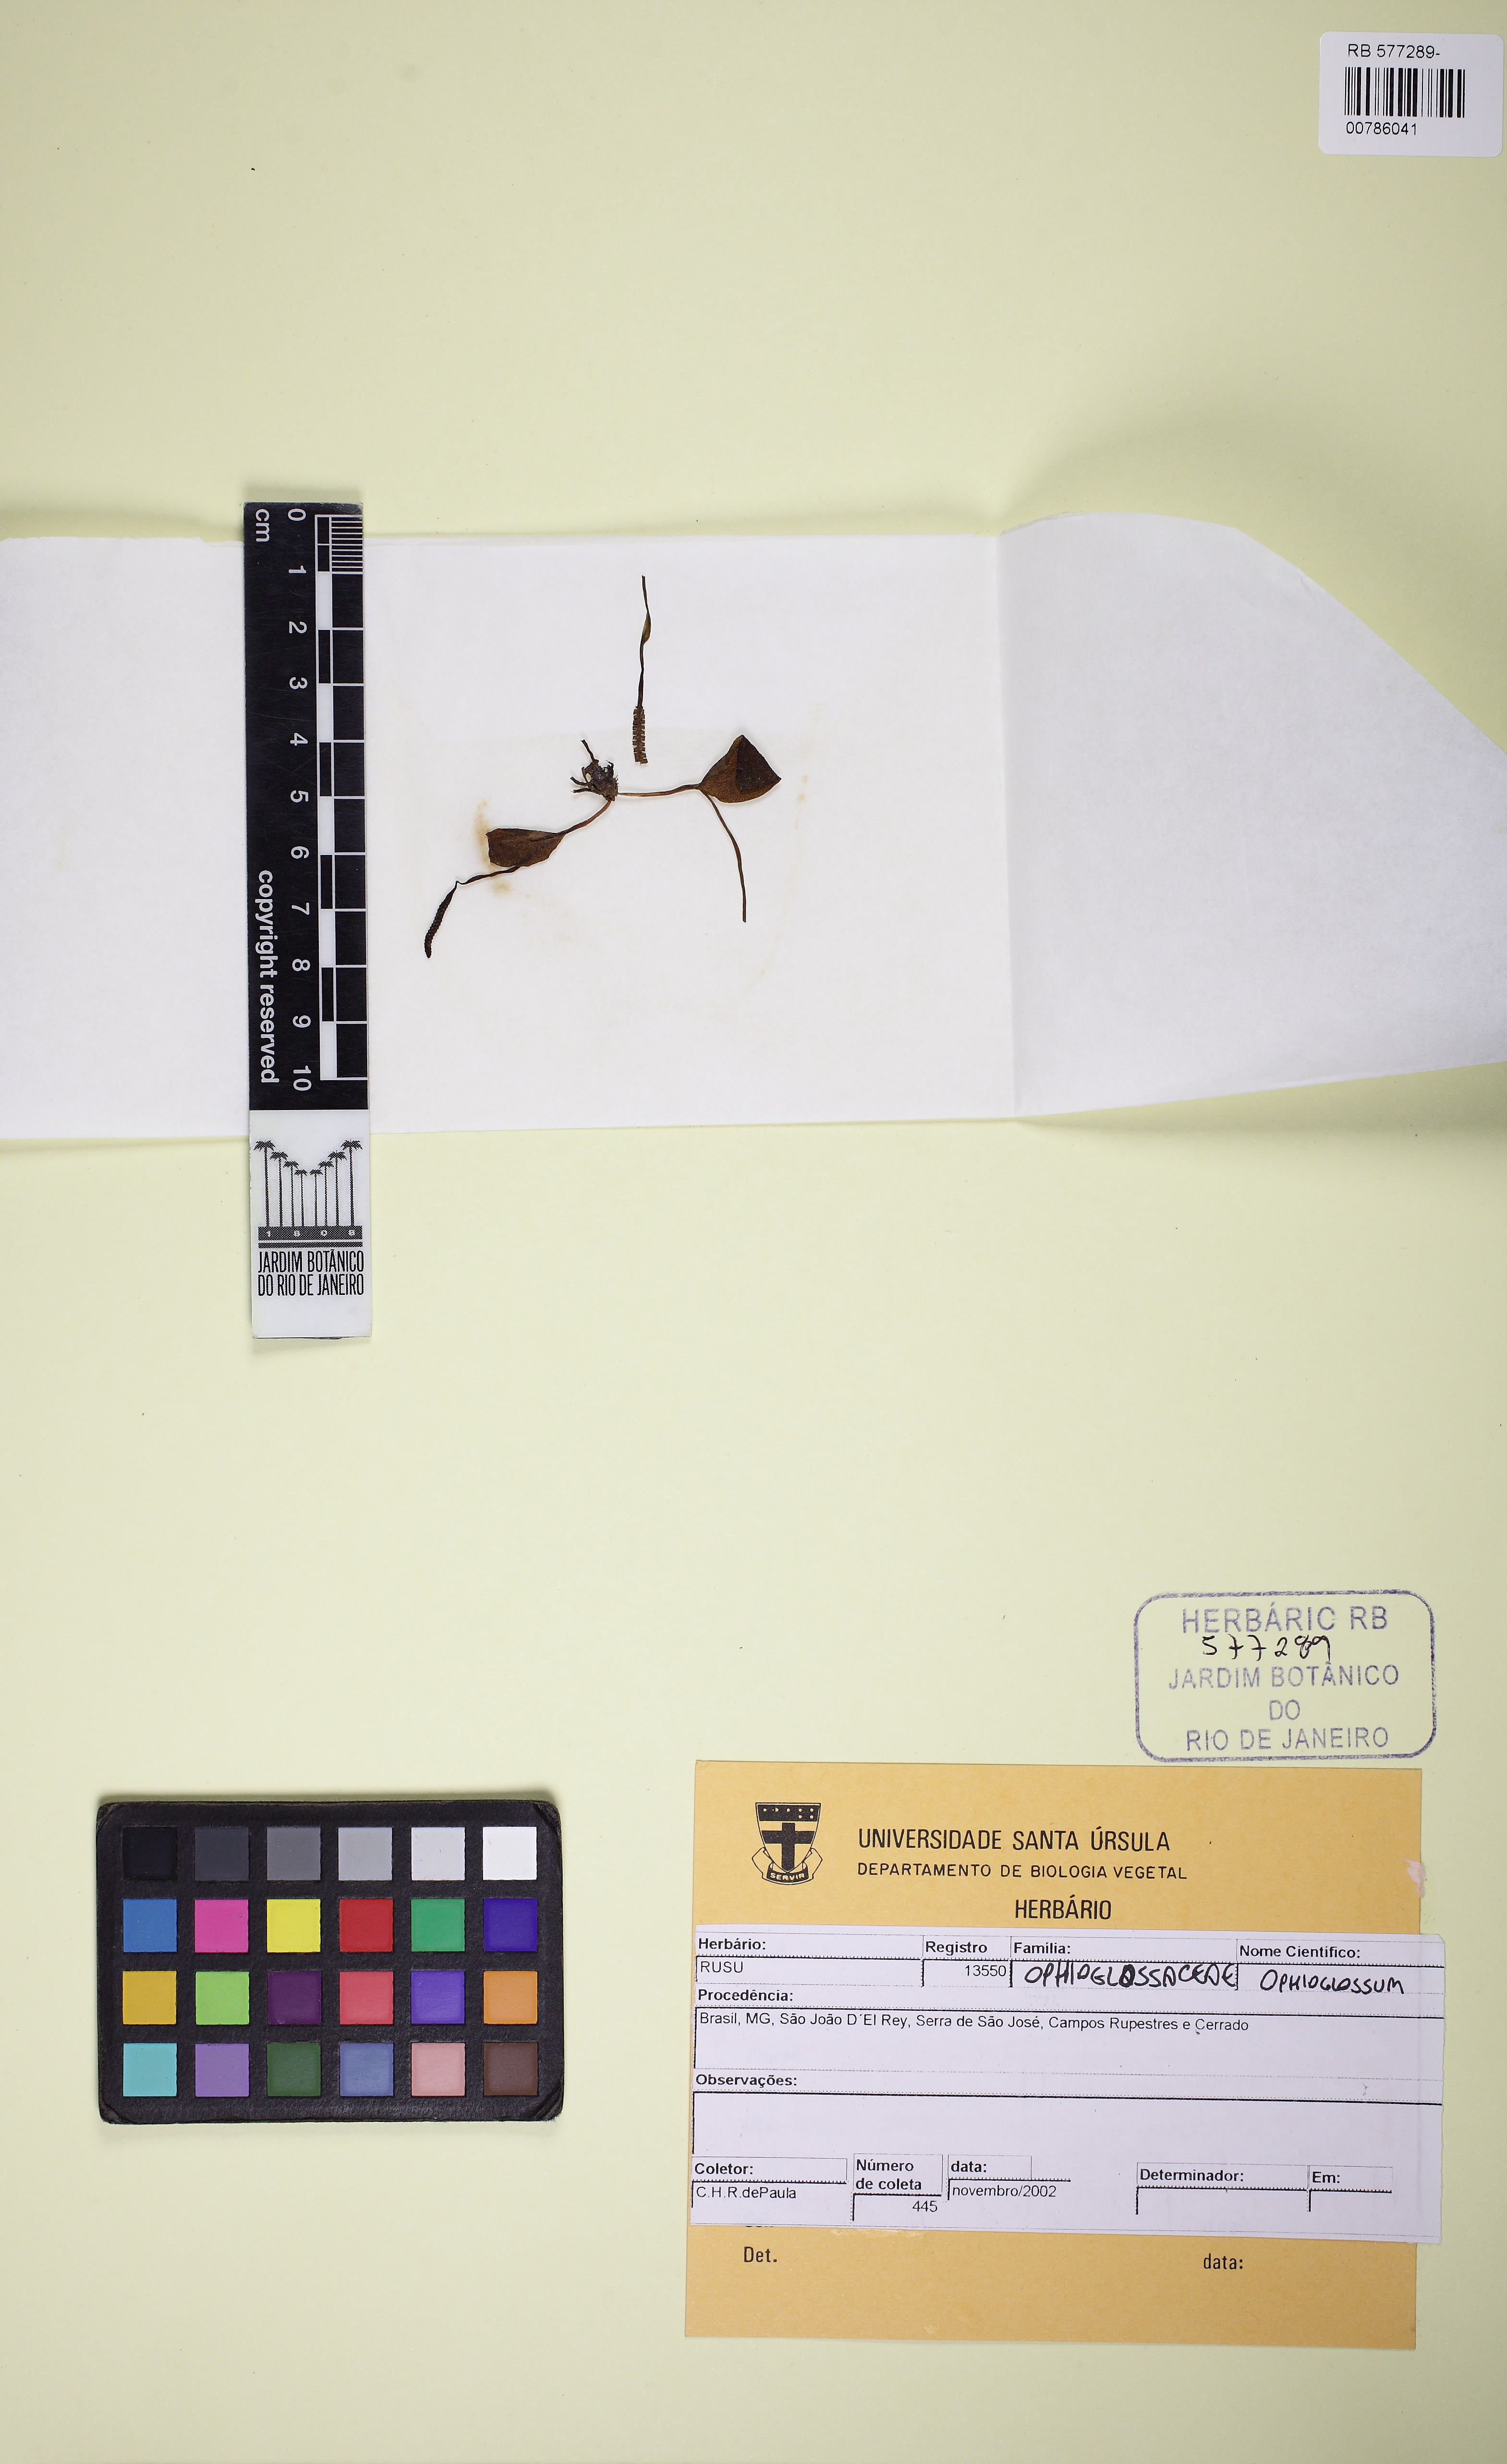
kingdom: Plantae
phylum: Tracheophyta
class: Polypodiopsida
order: Ophioglossales
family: Ophioglossaceae
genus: Ophioglossum
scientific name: Ophioglossum crotalophoroides
